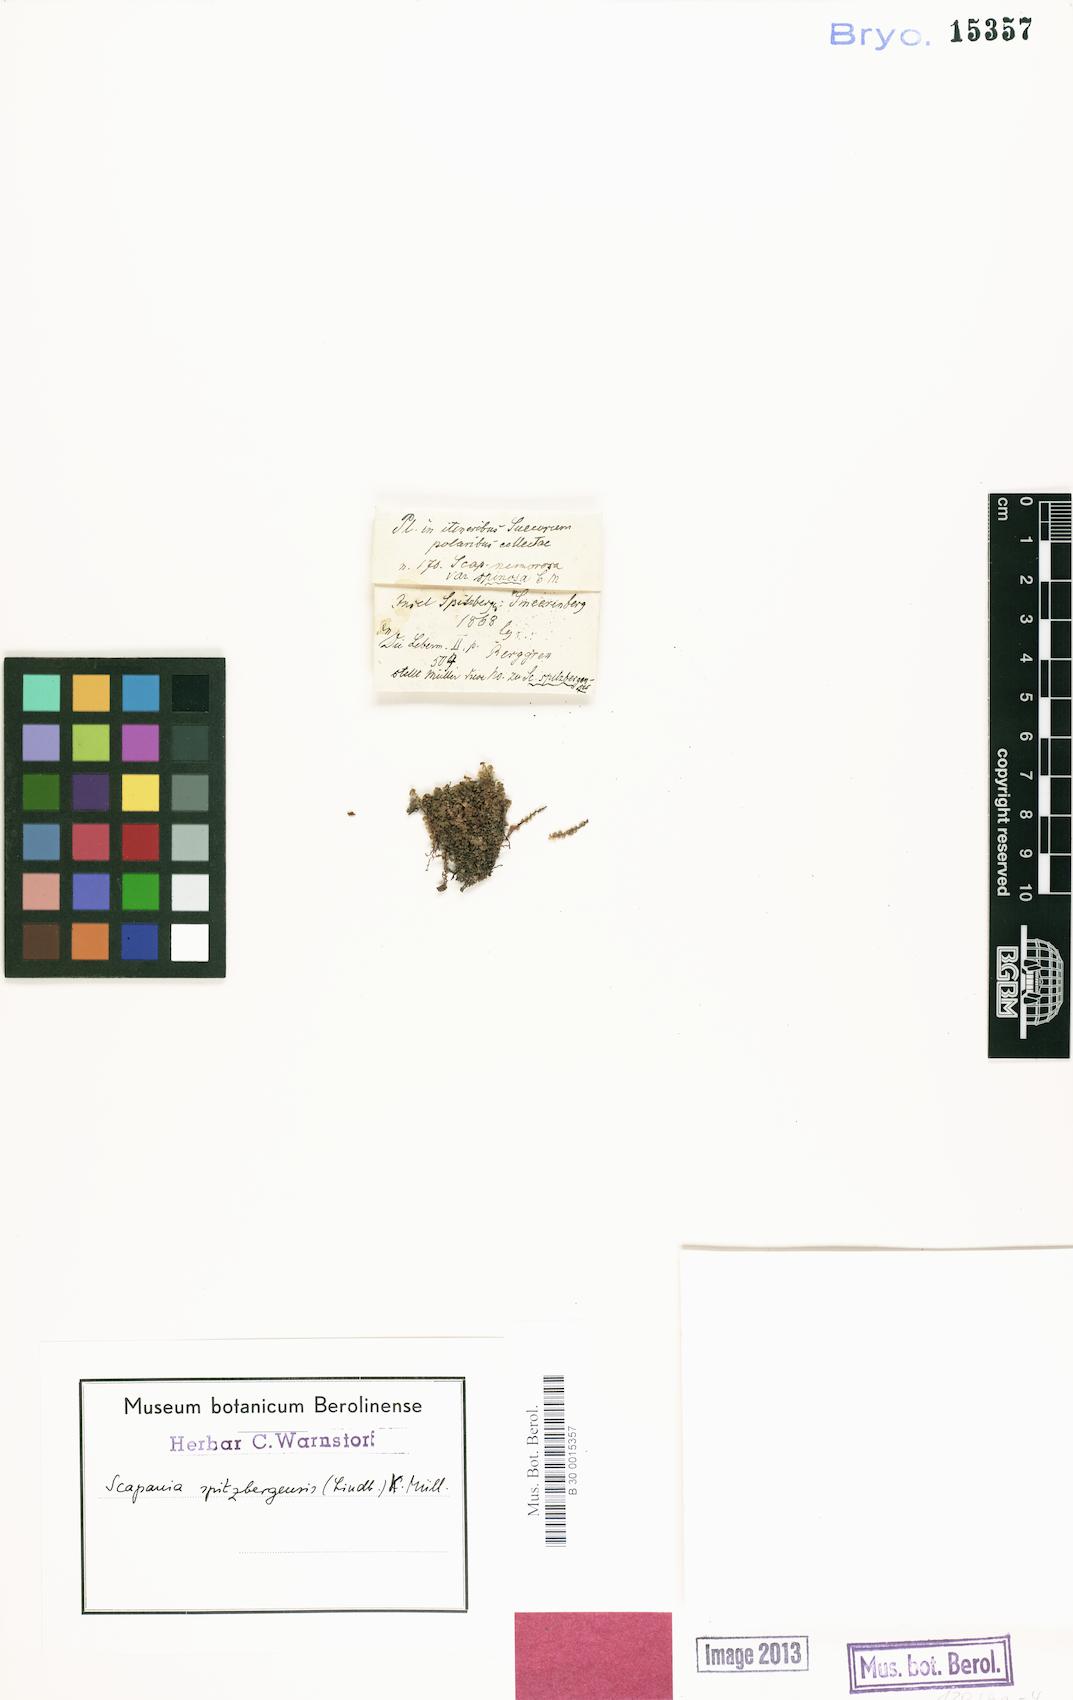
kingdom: Plantae
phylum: Marchantiophyta
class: Jungermanniopsida
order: Jungermanniales
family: Scapaniaceae
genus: Scapania
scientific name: Scapania spitsbergensis
